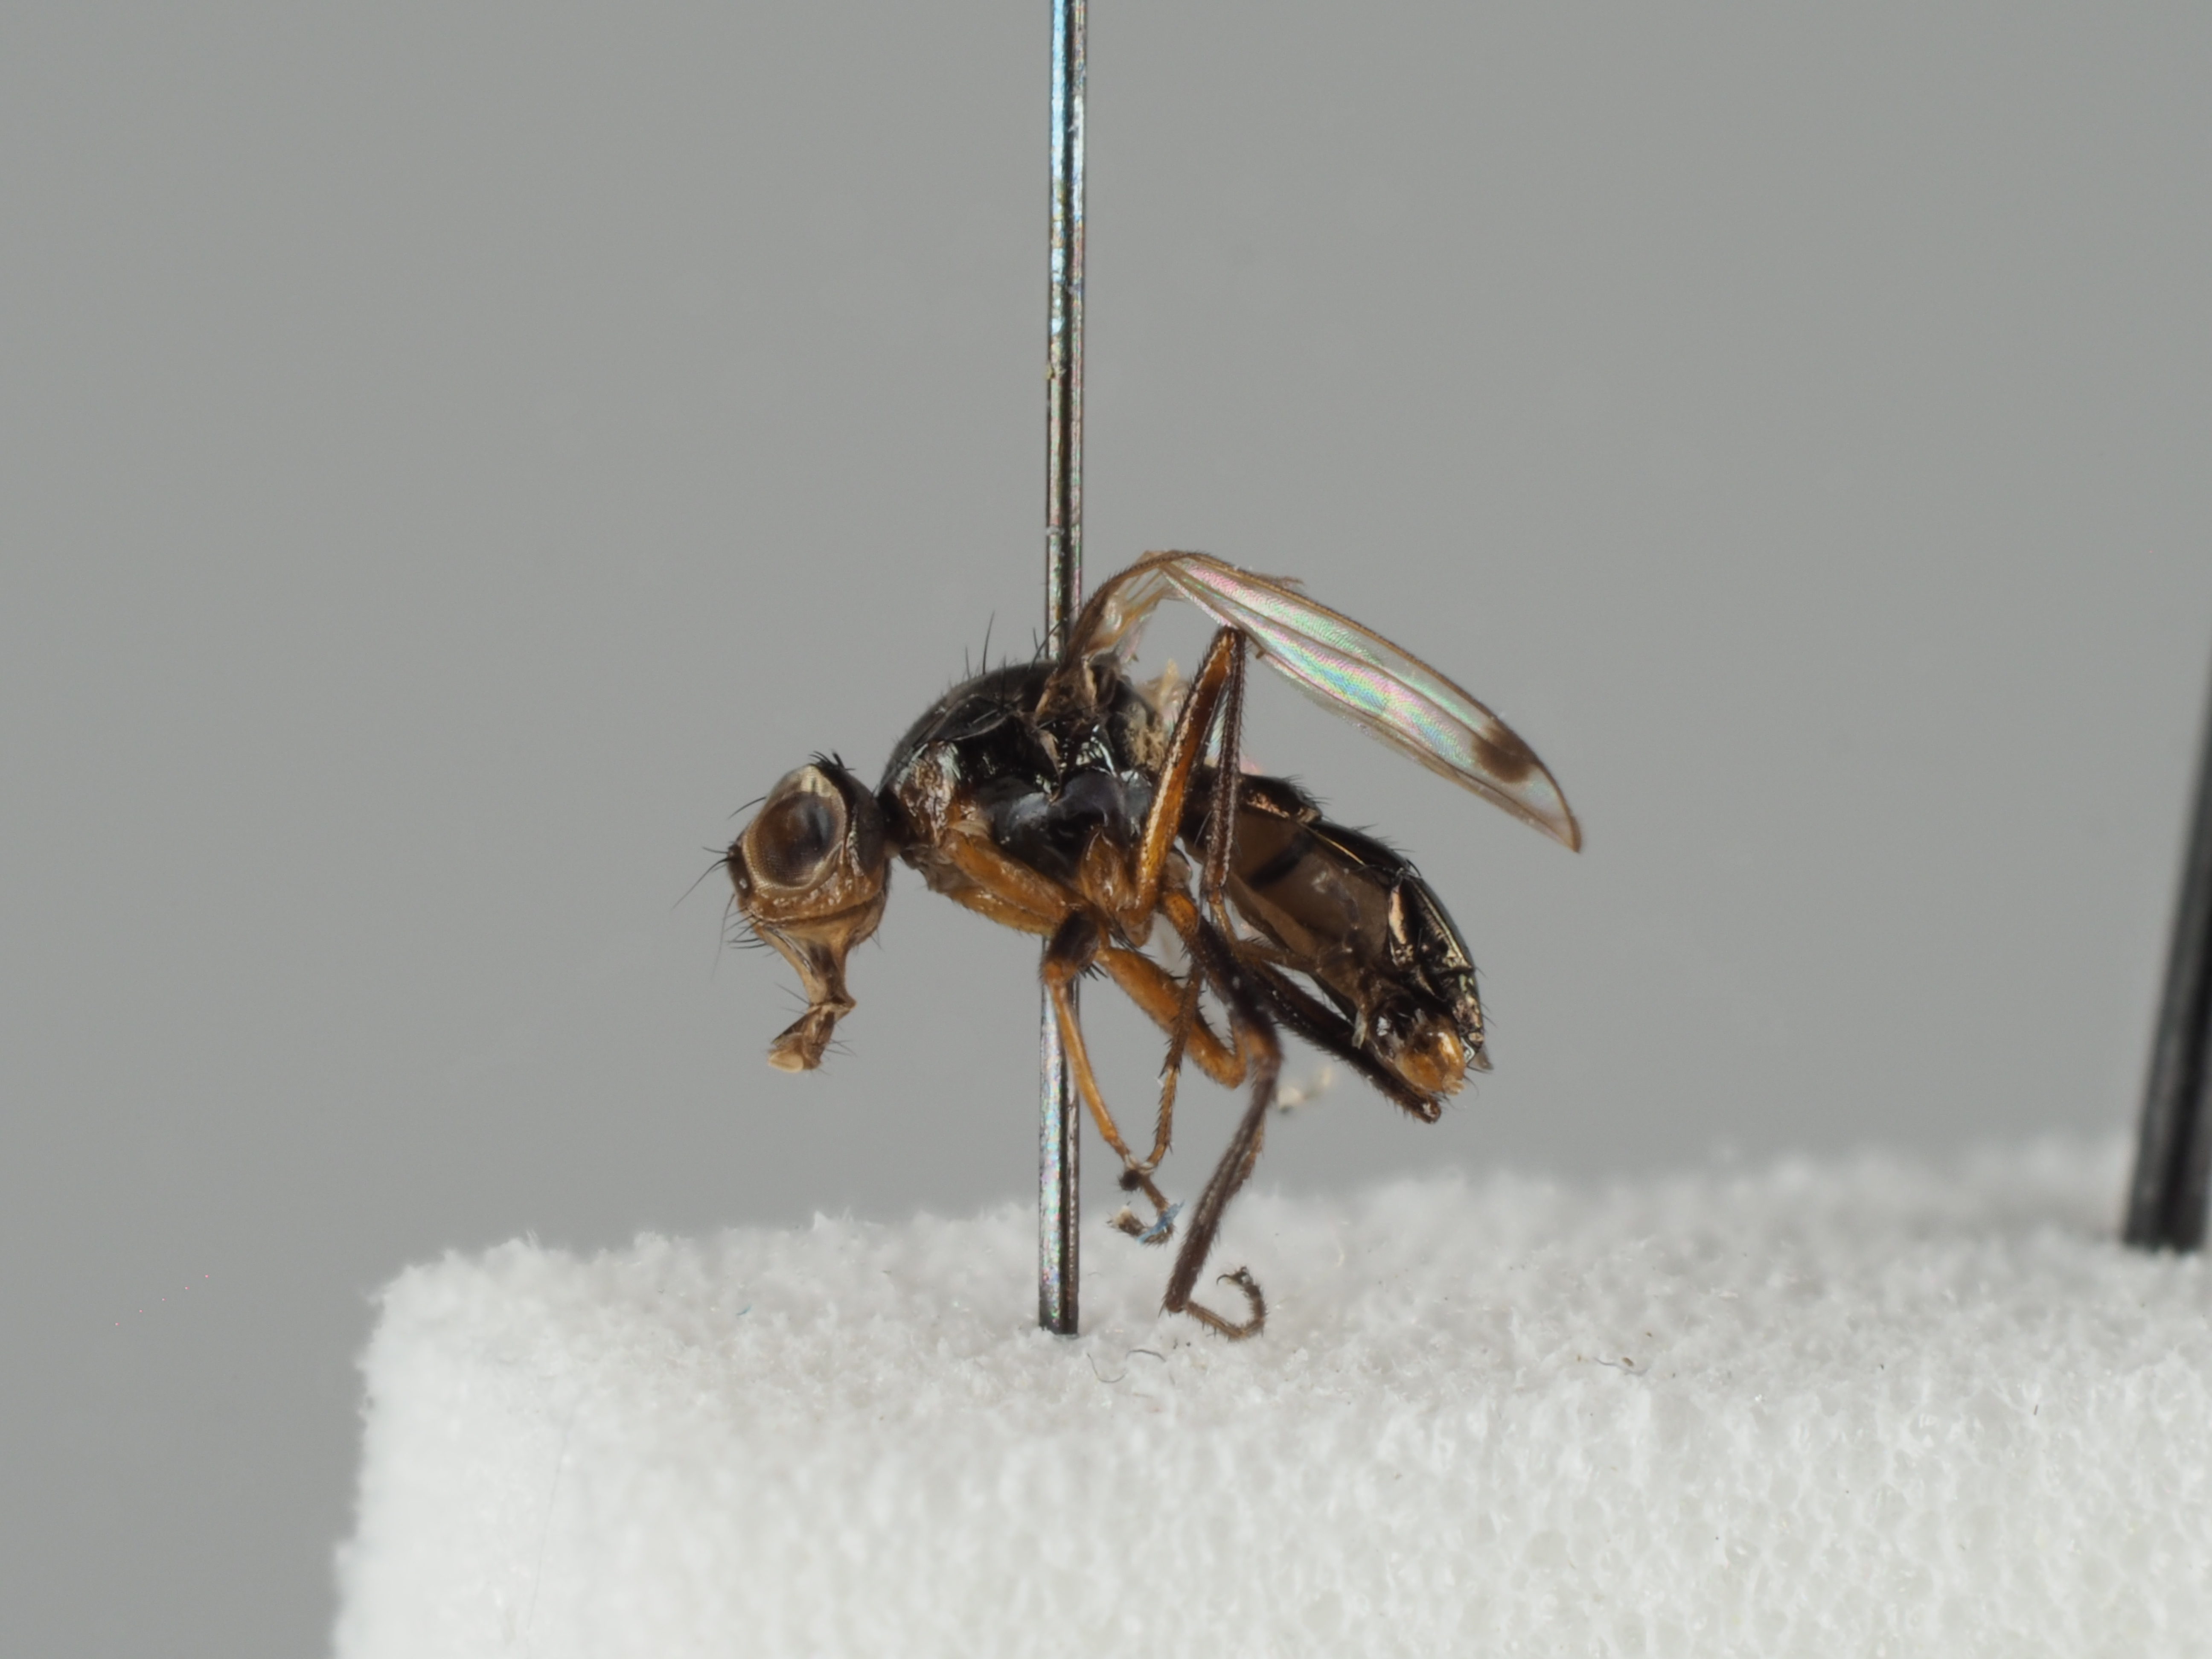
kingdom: Animalia
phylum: Arthropoda
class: Insecta
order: Diptera
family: Sepsidae
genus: Sepsis
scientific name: Sepsis thoracica
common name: Black scavenger fly
